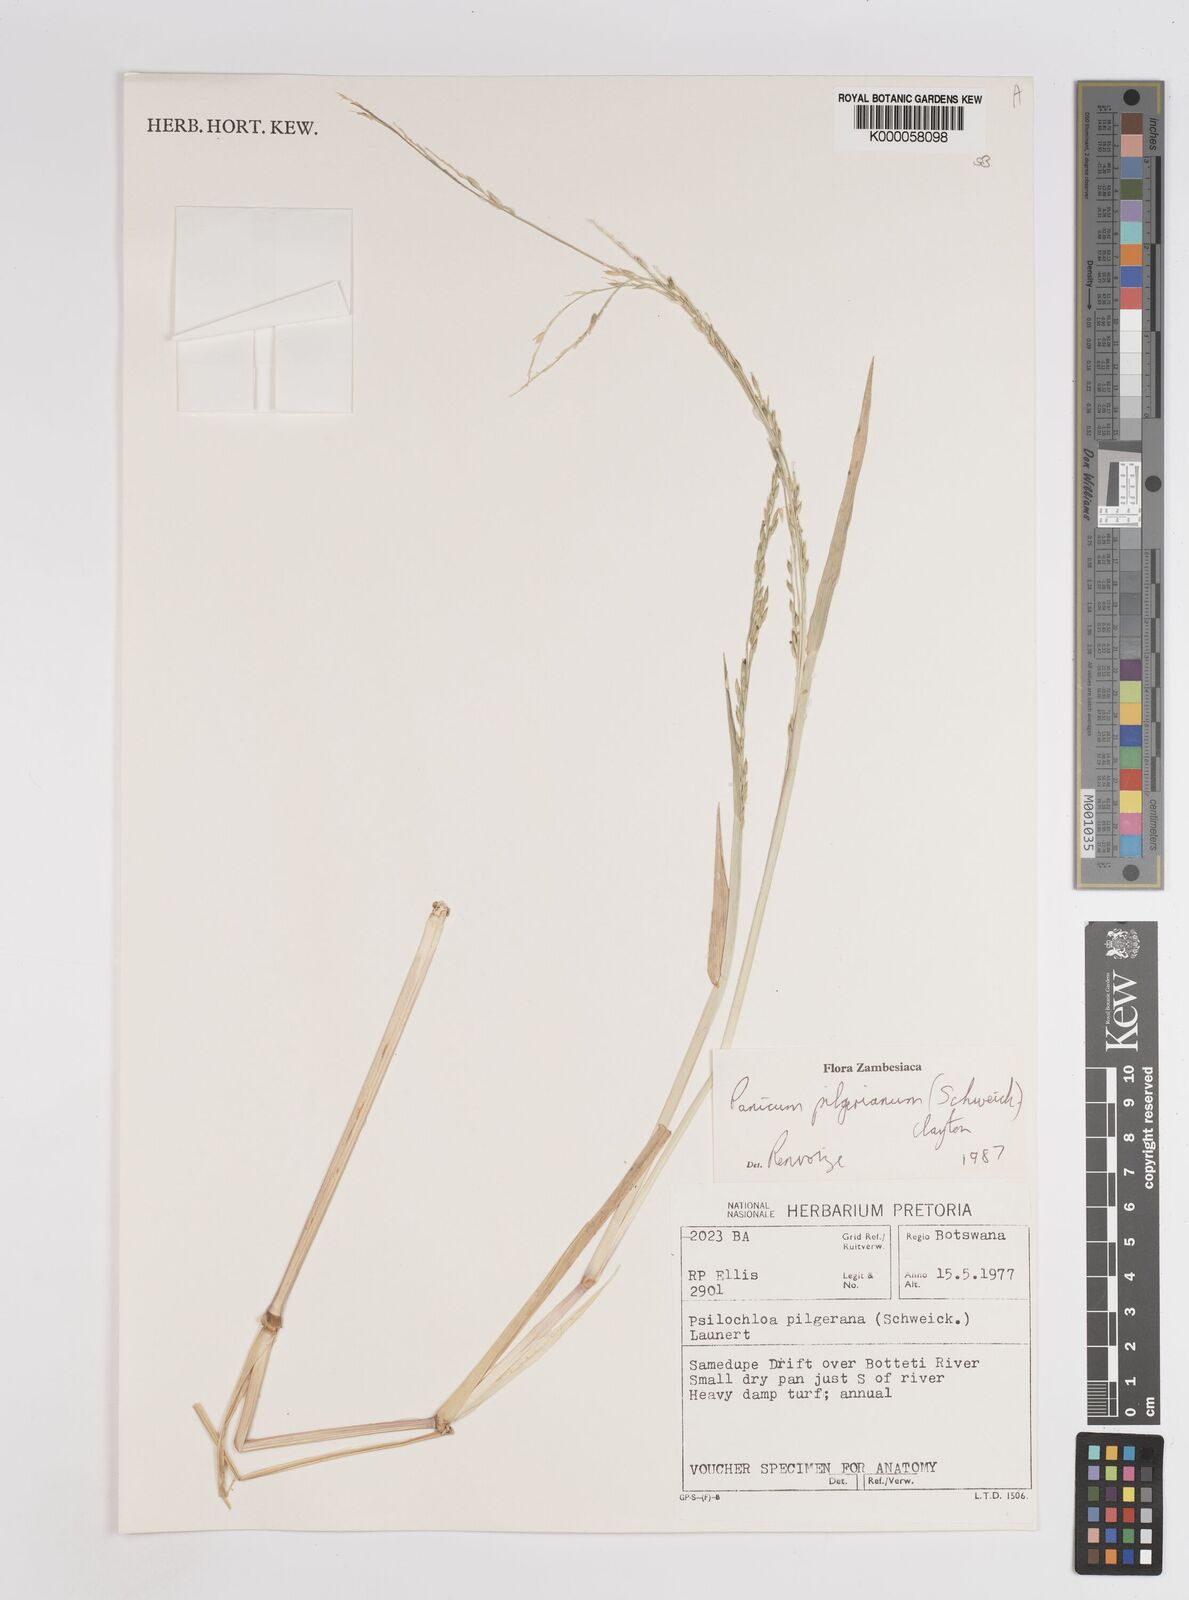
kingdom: Plantae
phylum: Tracheophyta
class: Liliopsida
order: Poales
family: Poaceae
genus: Panicum
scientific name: Panicum pilgerianum
